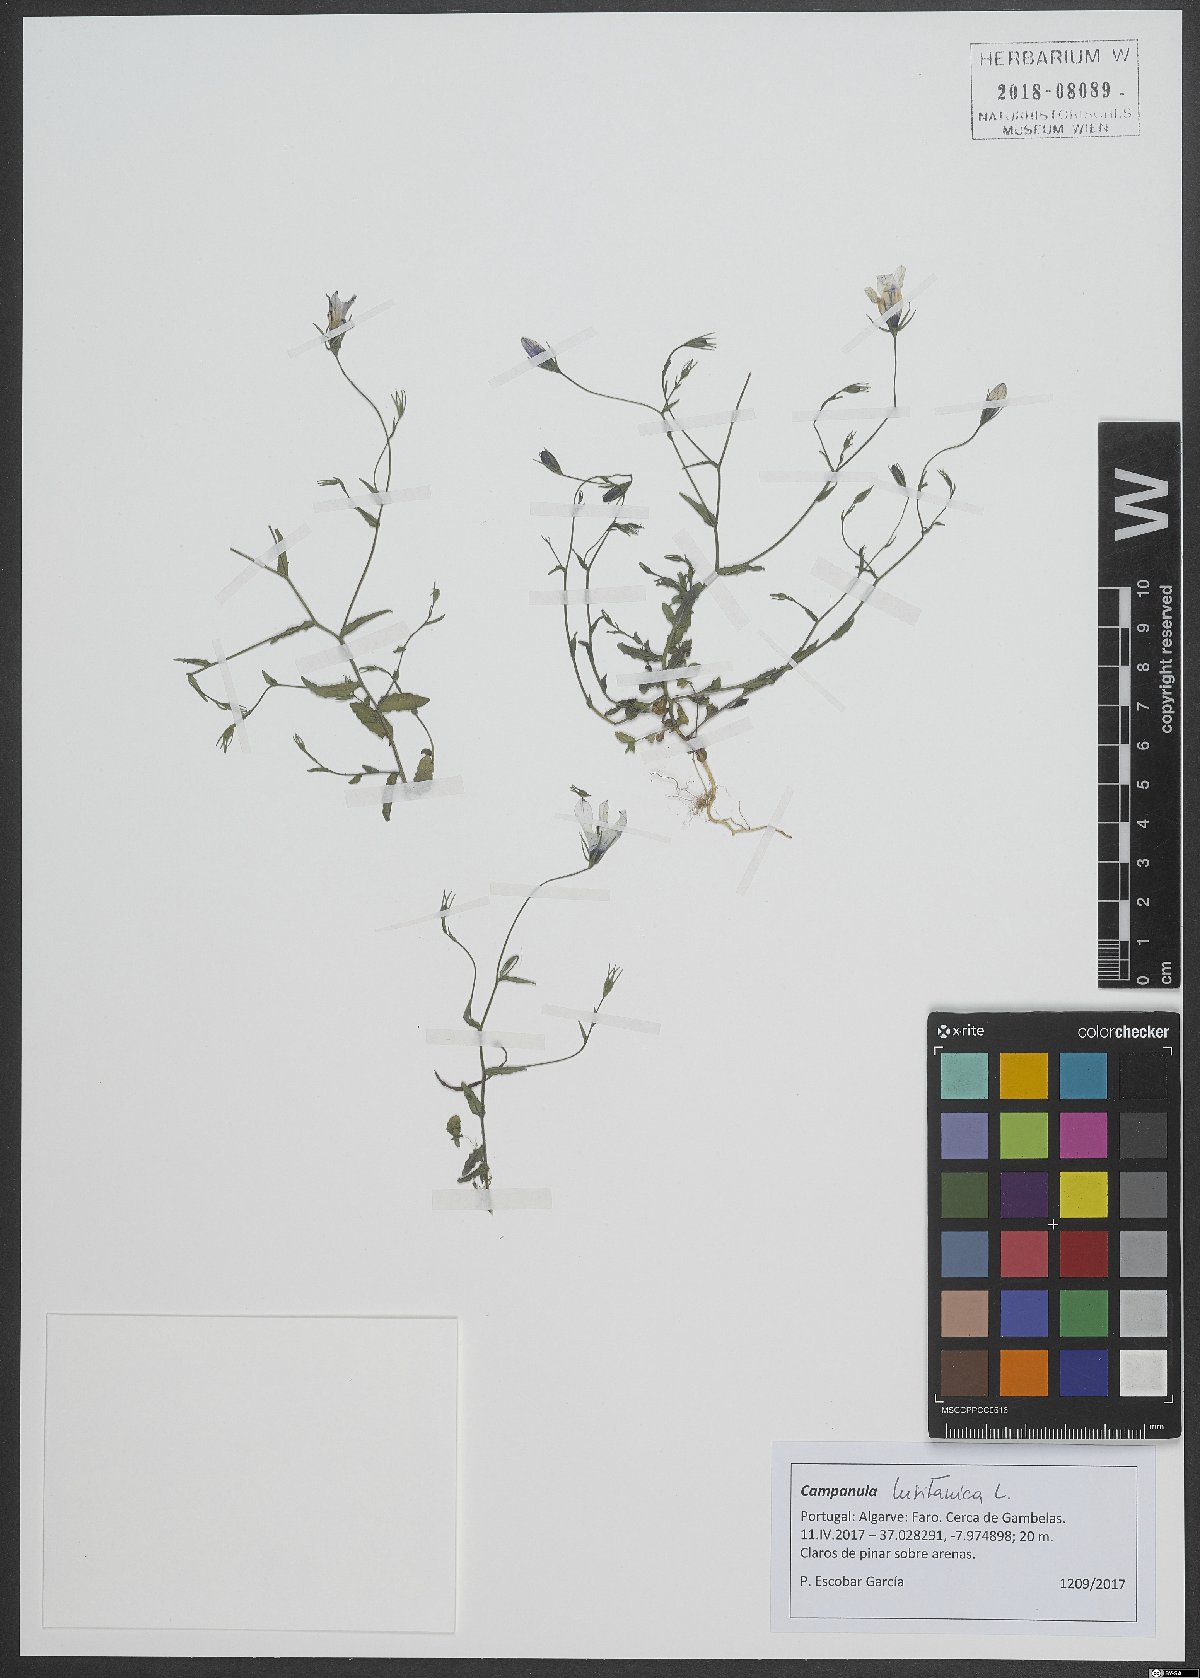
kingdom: Plantae
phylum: Tracheophyta
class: Magnoliopsida
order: Asterales
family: Campanulaceae
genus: Campanula
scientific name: Campanula lusitanica
